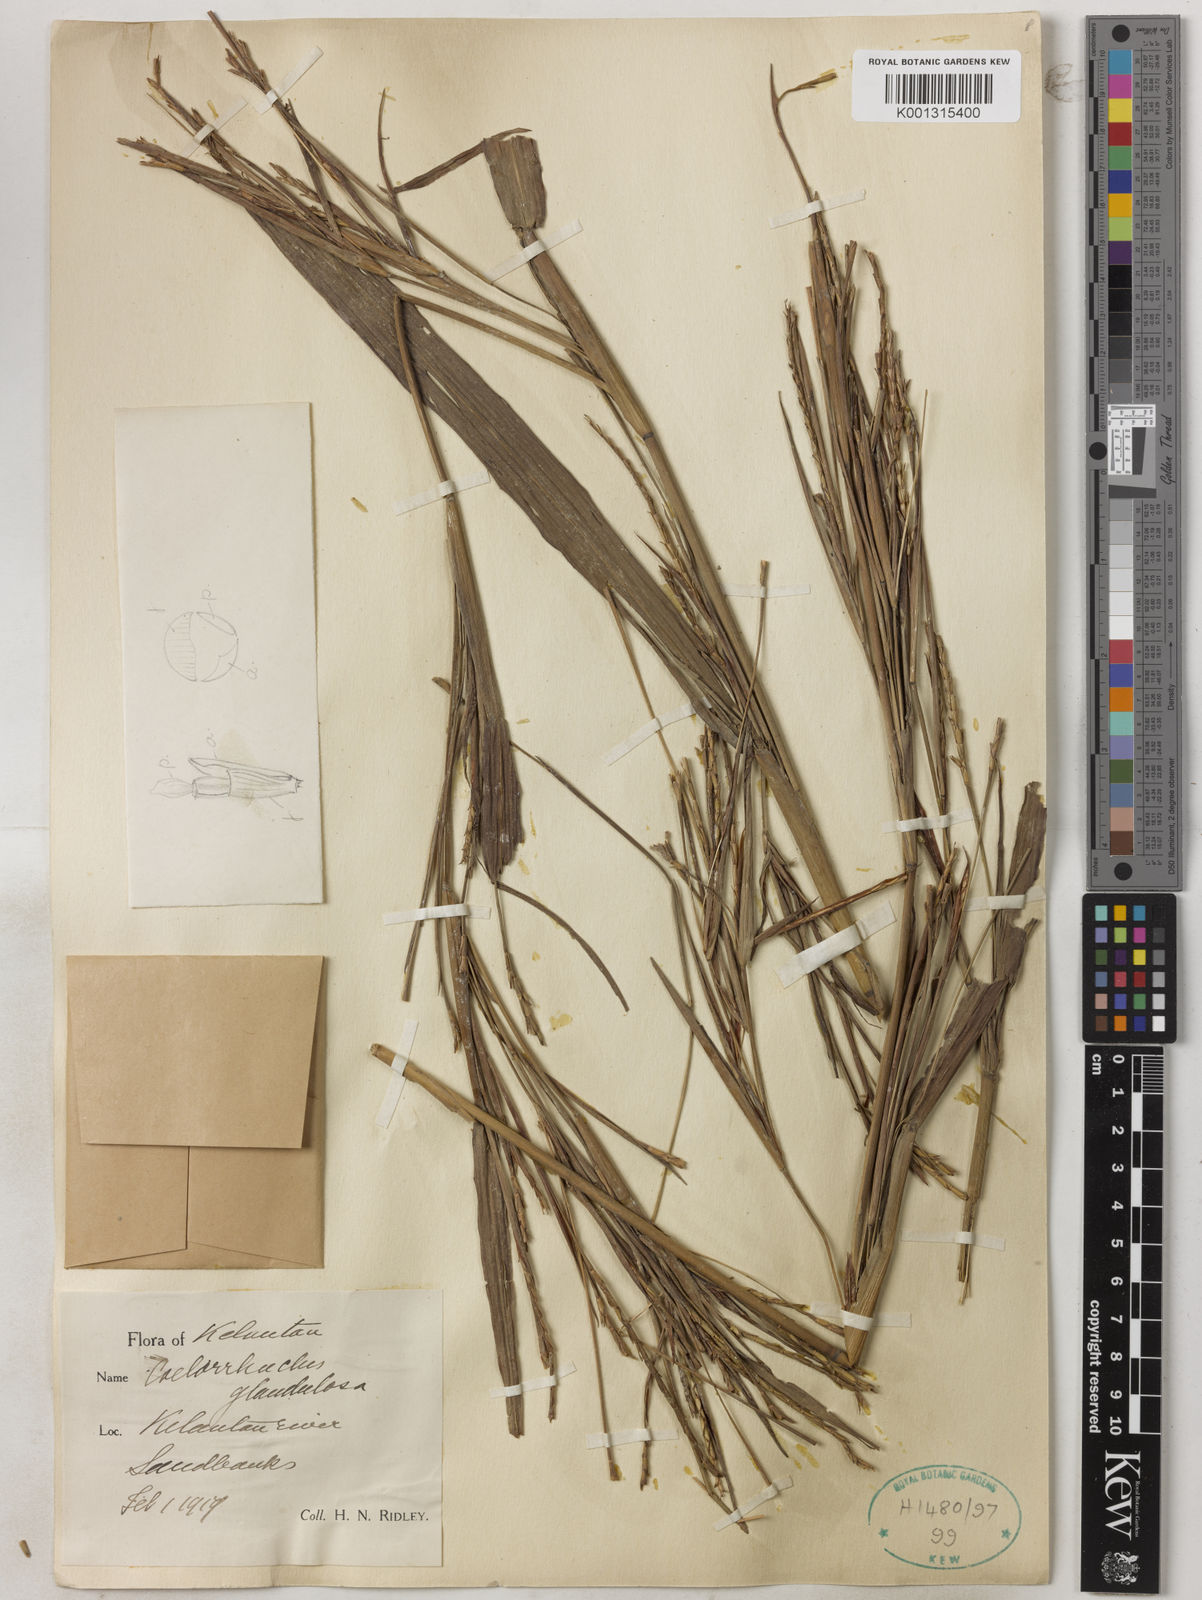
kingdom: Plantae
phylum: Tracheophyta
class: Liliopsida
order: Poales
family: Poaceae
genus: Rottboellia
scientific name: Rottboellia glandulosa
